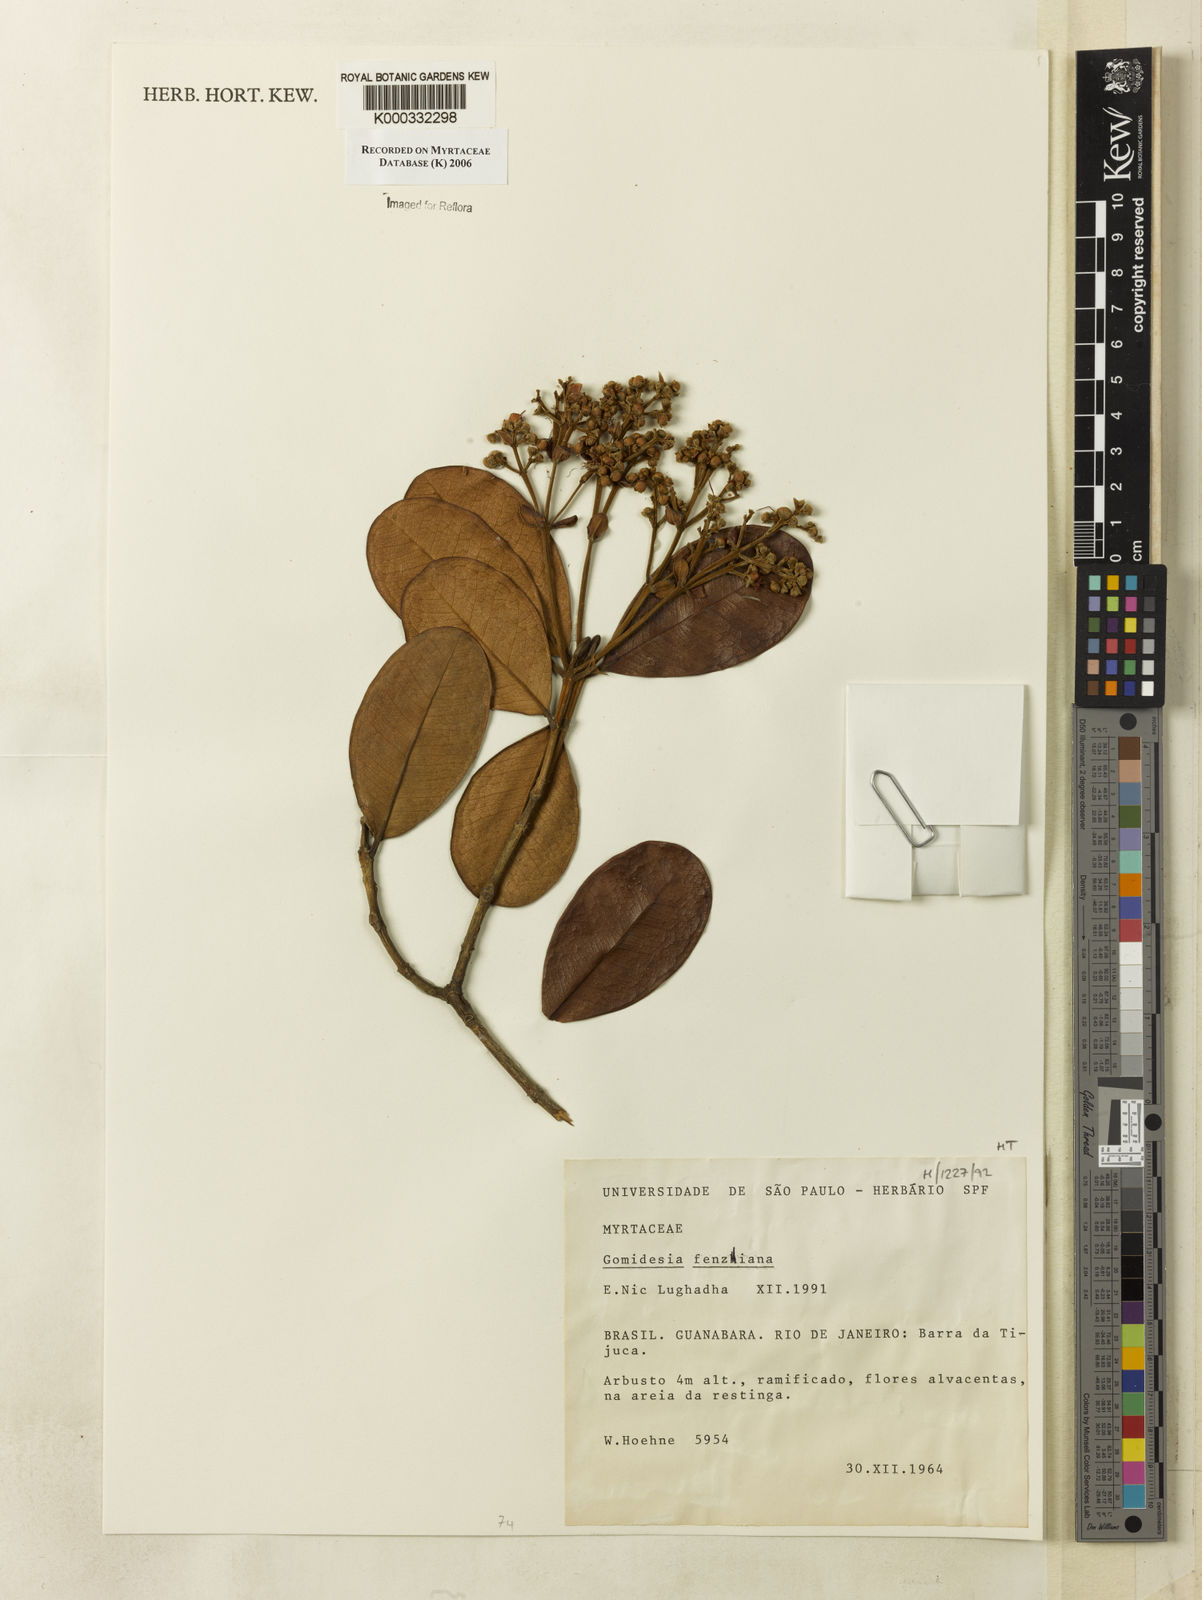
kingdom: Plantae
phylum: Tracheophyta
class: Magnoliopsida
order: Myrtales
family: Myrtaceae
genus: Myrcia
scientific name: Myrcia ilheosensis
